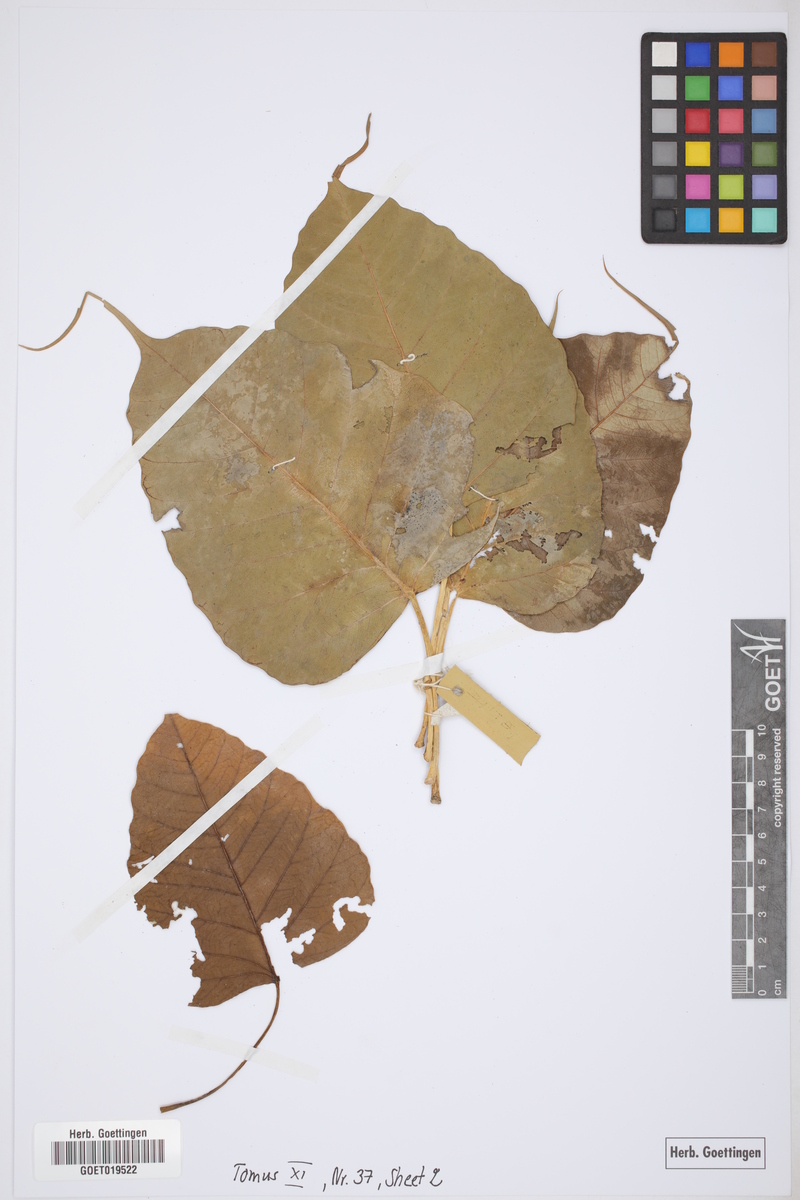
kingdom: Plantae
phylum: Tracheophyta
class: Magnoliopsida
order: Rosales
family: Moraceae
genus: Ficus
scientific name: Ficus religiosa
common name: Bodhi tree
